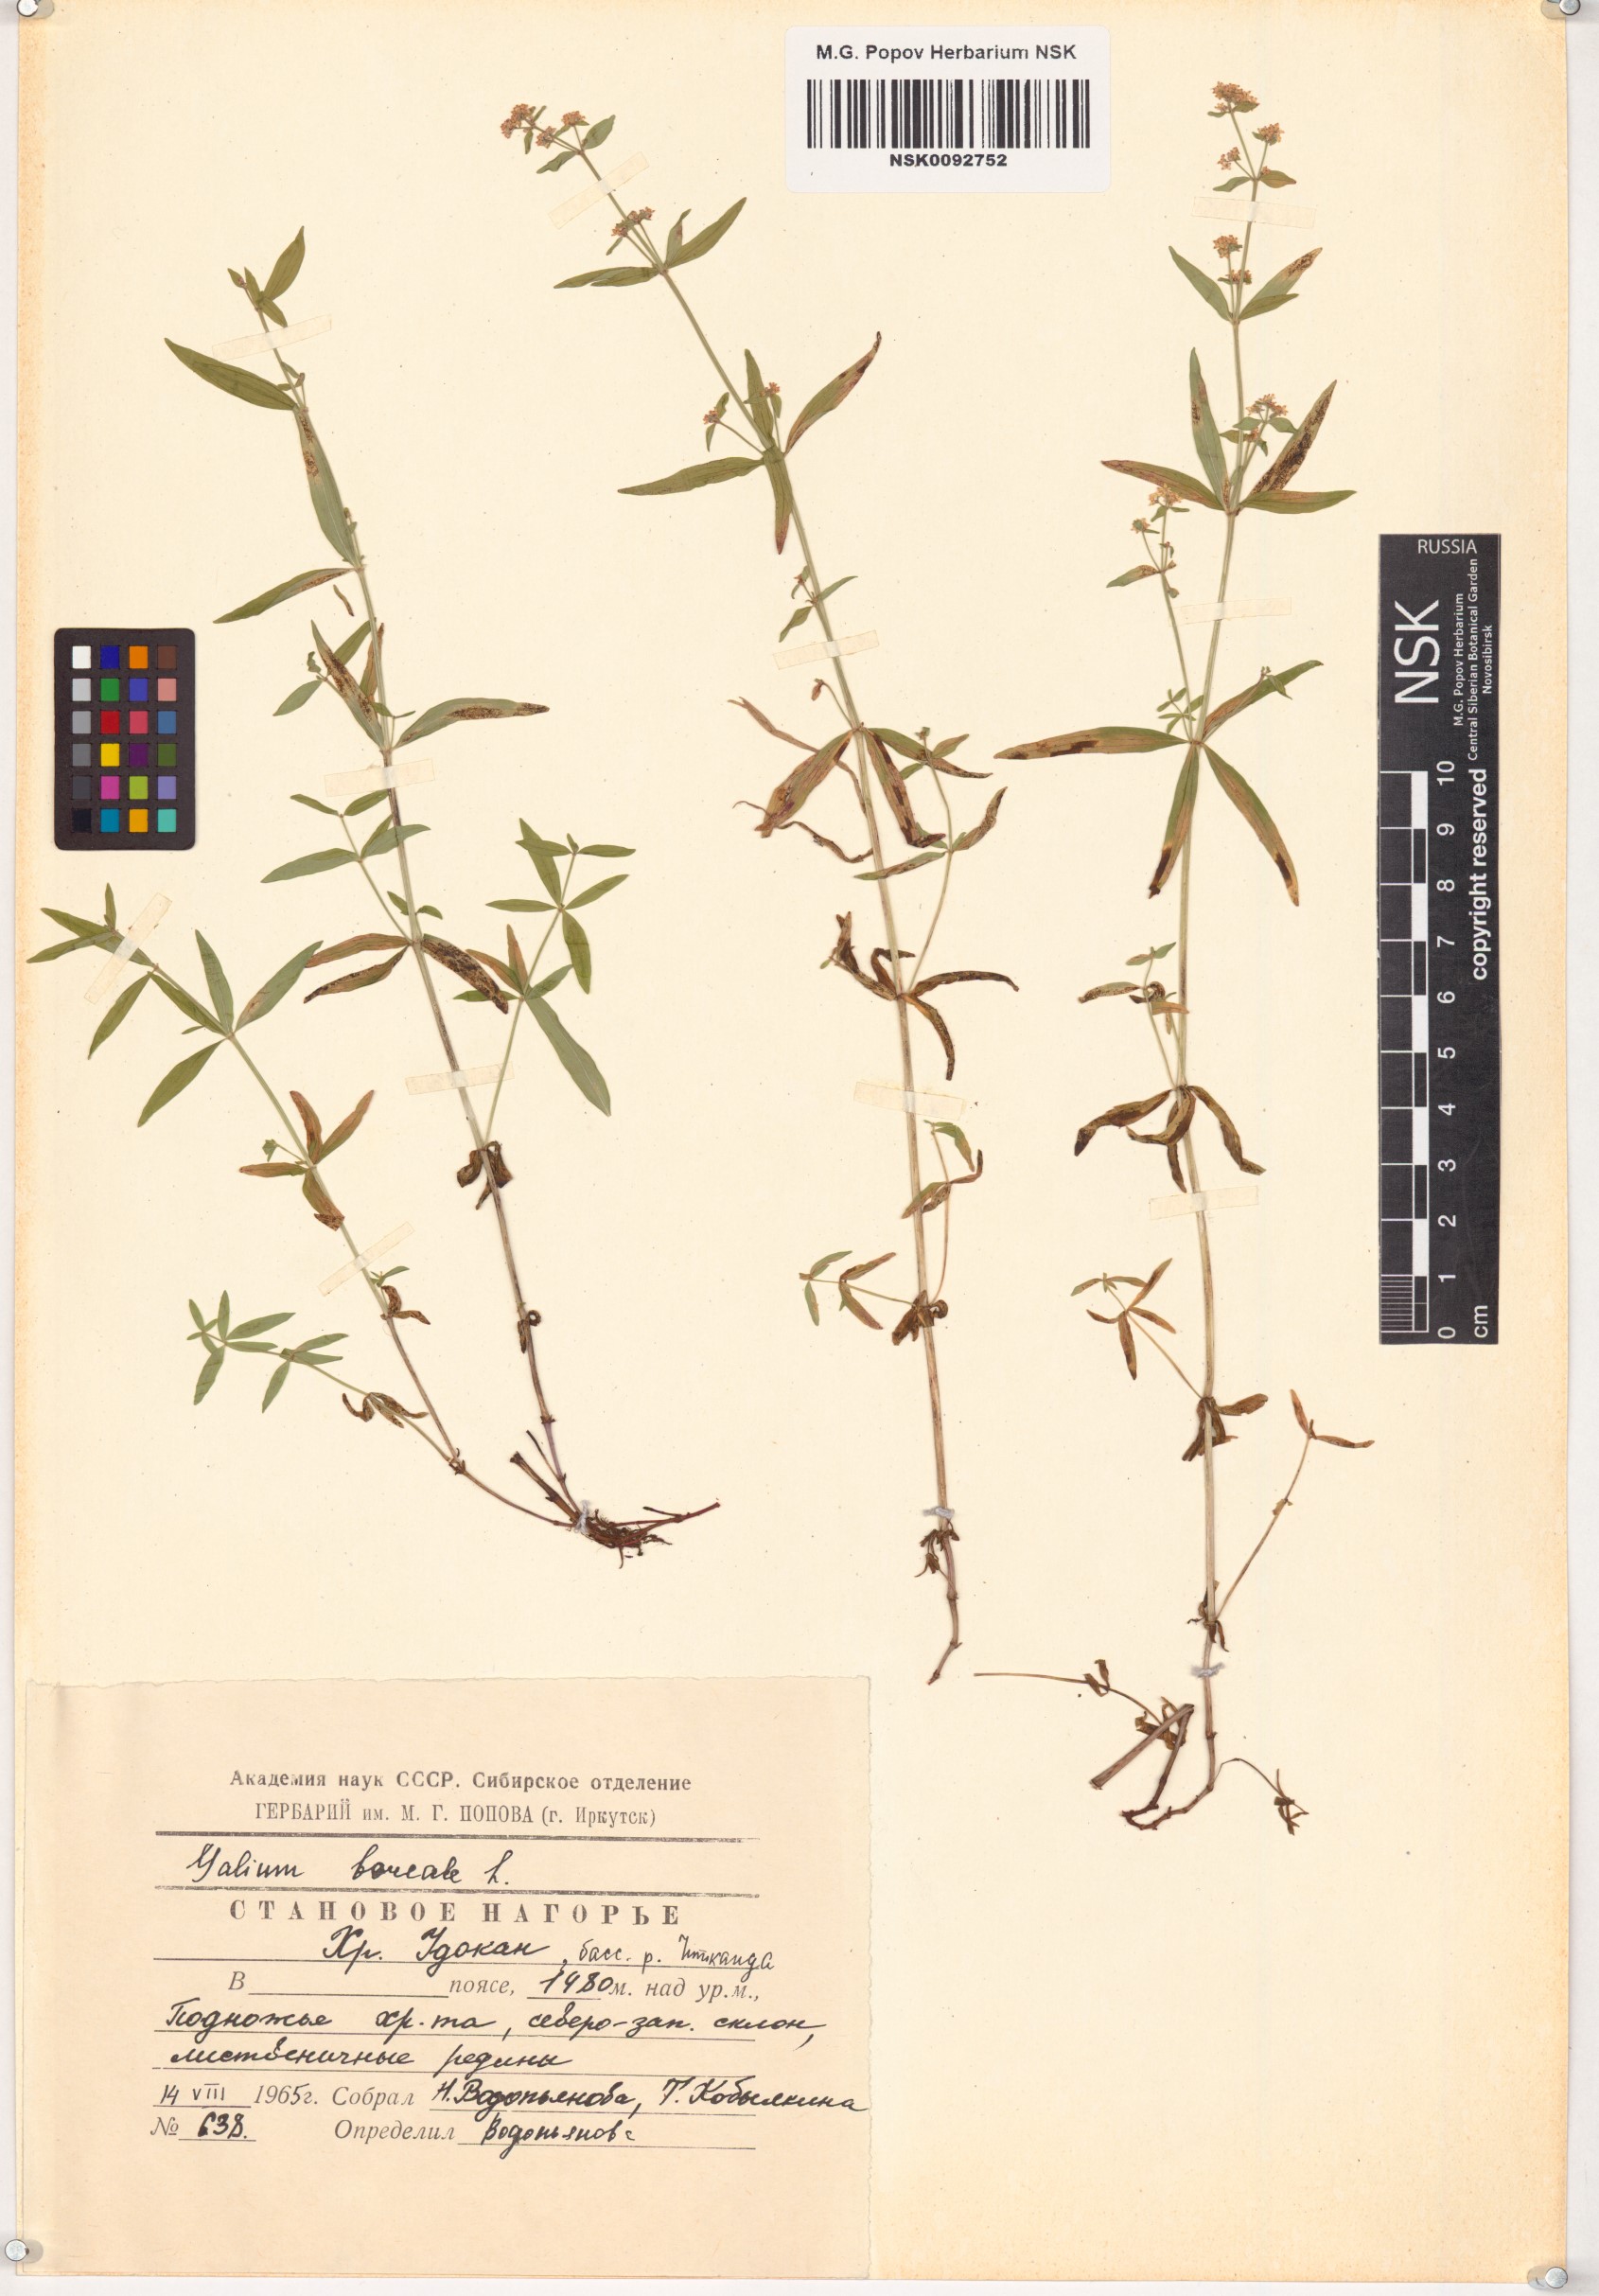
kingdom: Plantae
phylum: Tracheophyta
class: Magnoliopsida
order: Gentianales
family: Rubiaceae
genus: Galium
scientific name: Galium boreale
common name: Northern bedstraw
